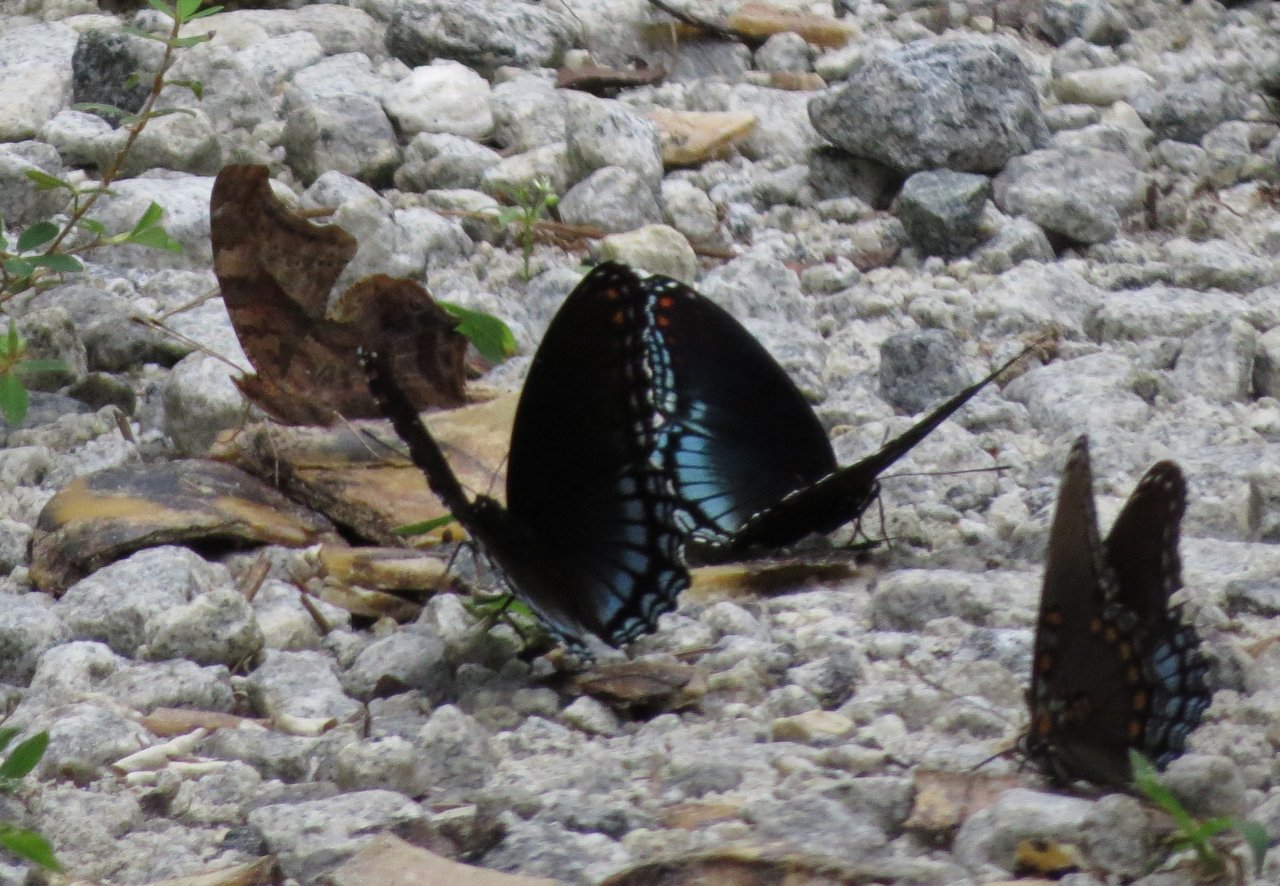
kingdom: Animalia
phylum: Arthropoda
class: Insecta
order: Lepidoptera
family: Nymphalidae
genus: Limenitis
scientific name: Limenitis astyanax
